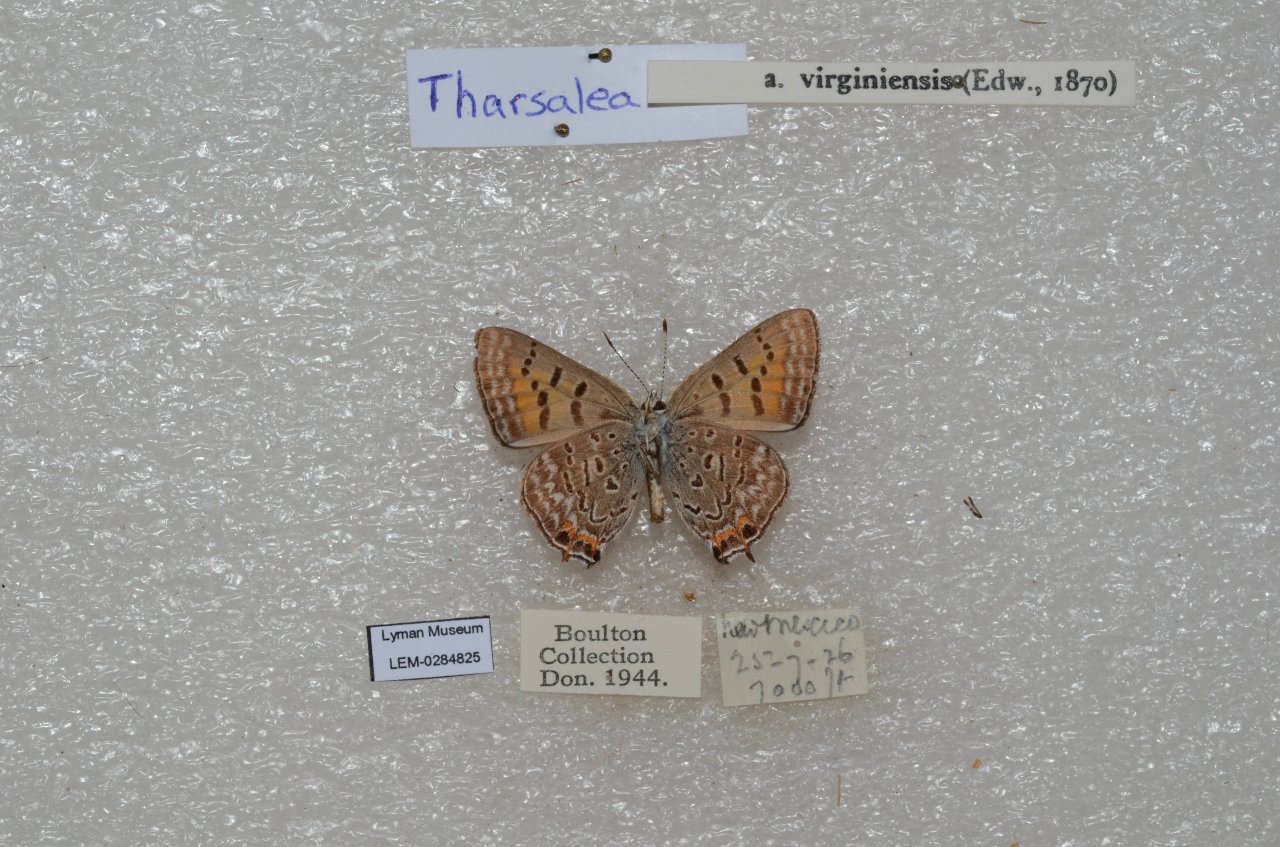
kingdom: Animalia
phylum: Arthropoda
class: Insecta
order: Lepidoptera
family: Sesiidae
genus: Sesia
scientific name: Sesia Lycaena arota
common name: Tailed Copper
